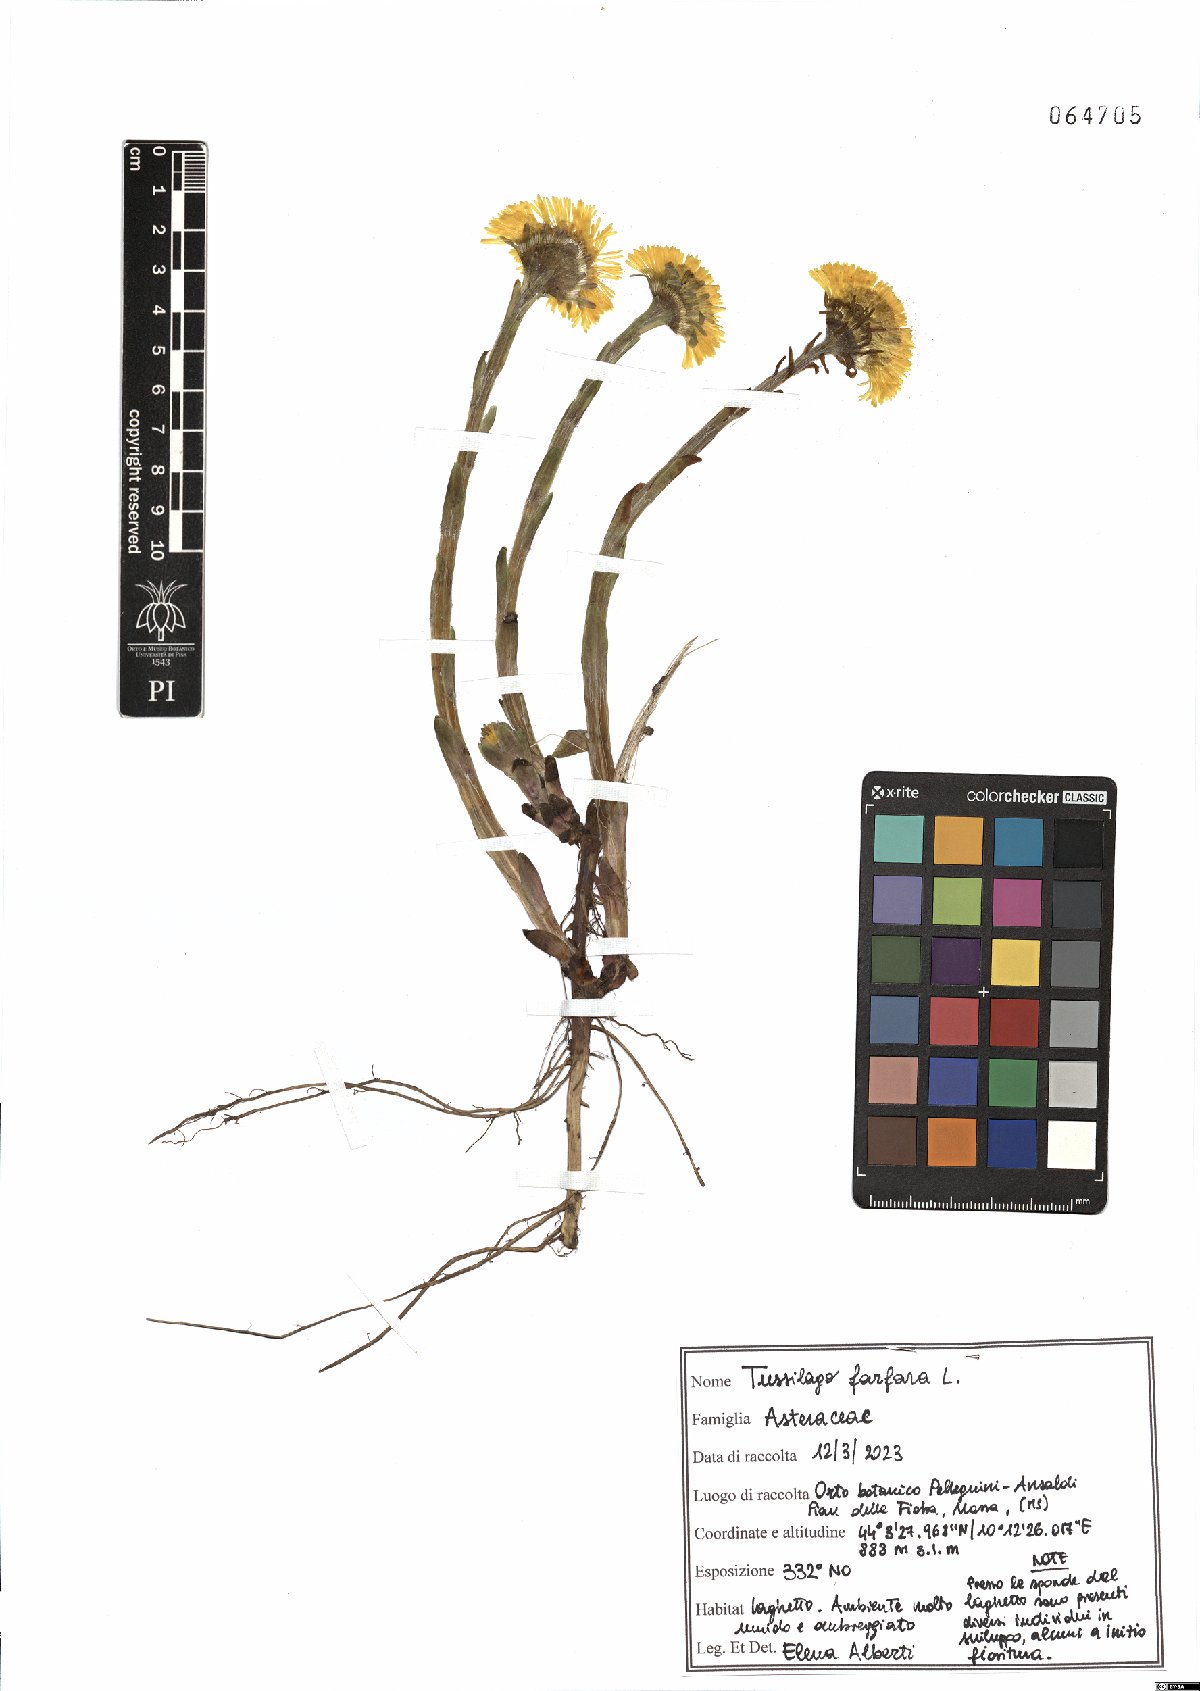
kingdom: Plantae
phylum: Tracheophyta
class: Magnoliopsida
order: Asterales
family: Asteraceae
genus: Tussilago
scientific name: Tussilago farfara
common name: Coltsfoot
